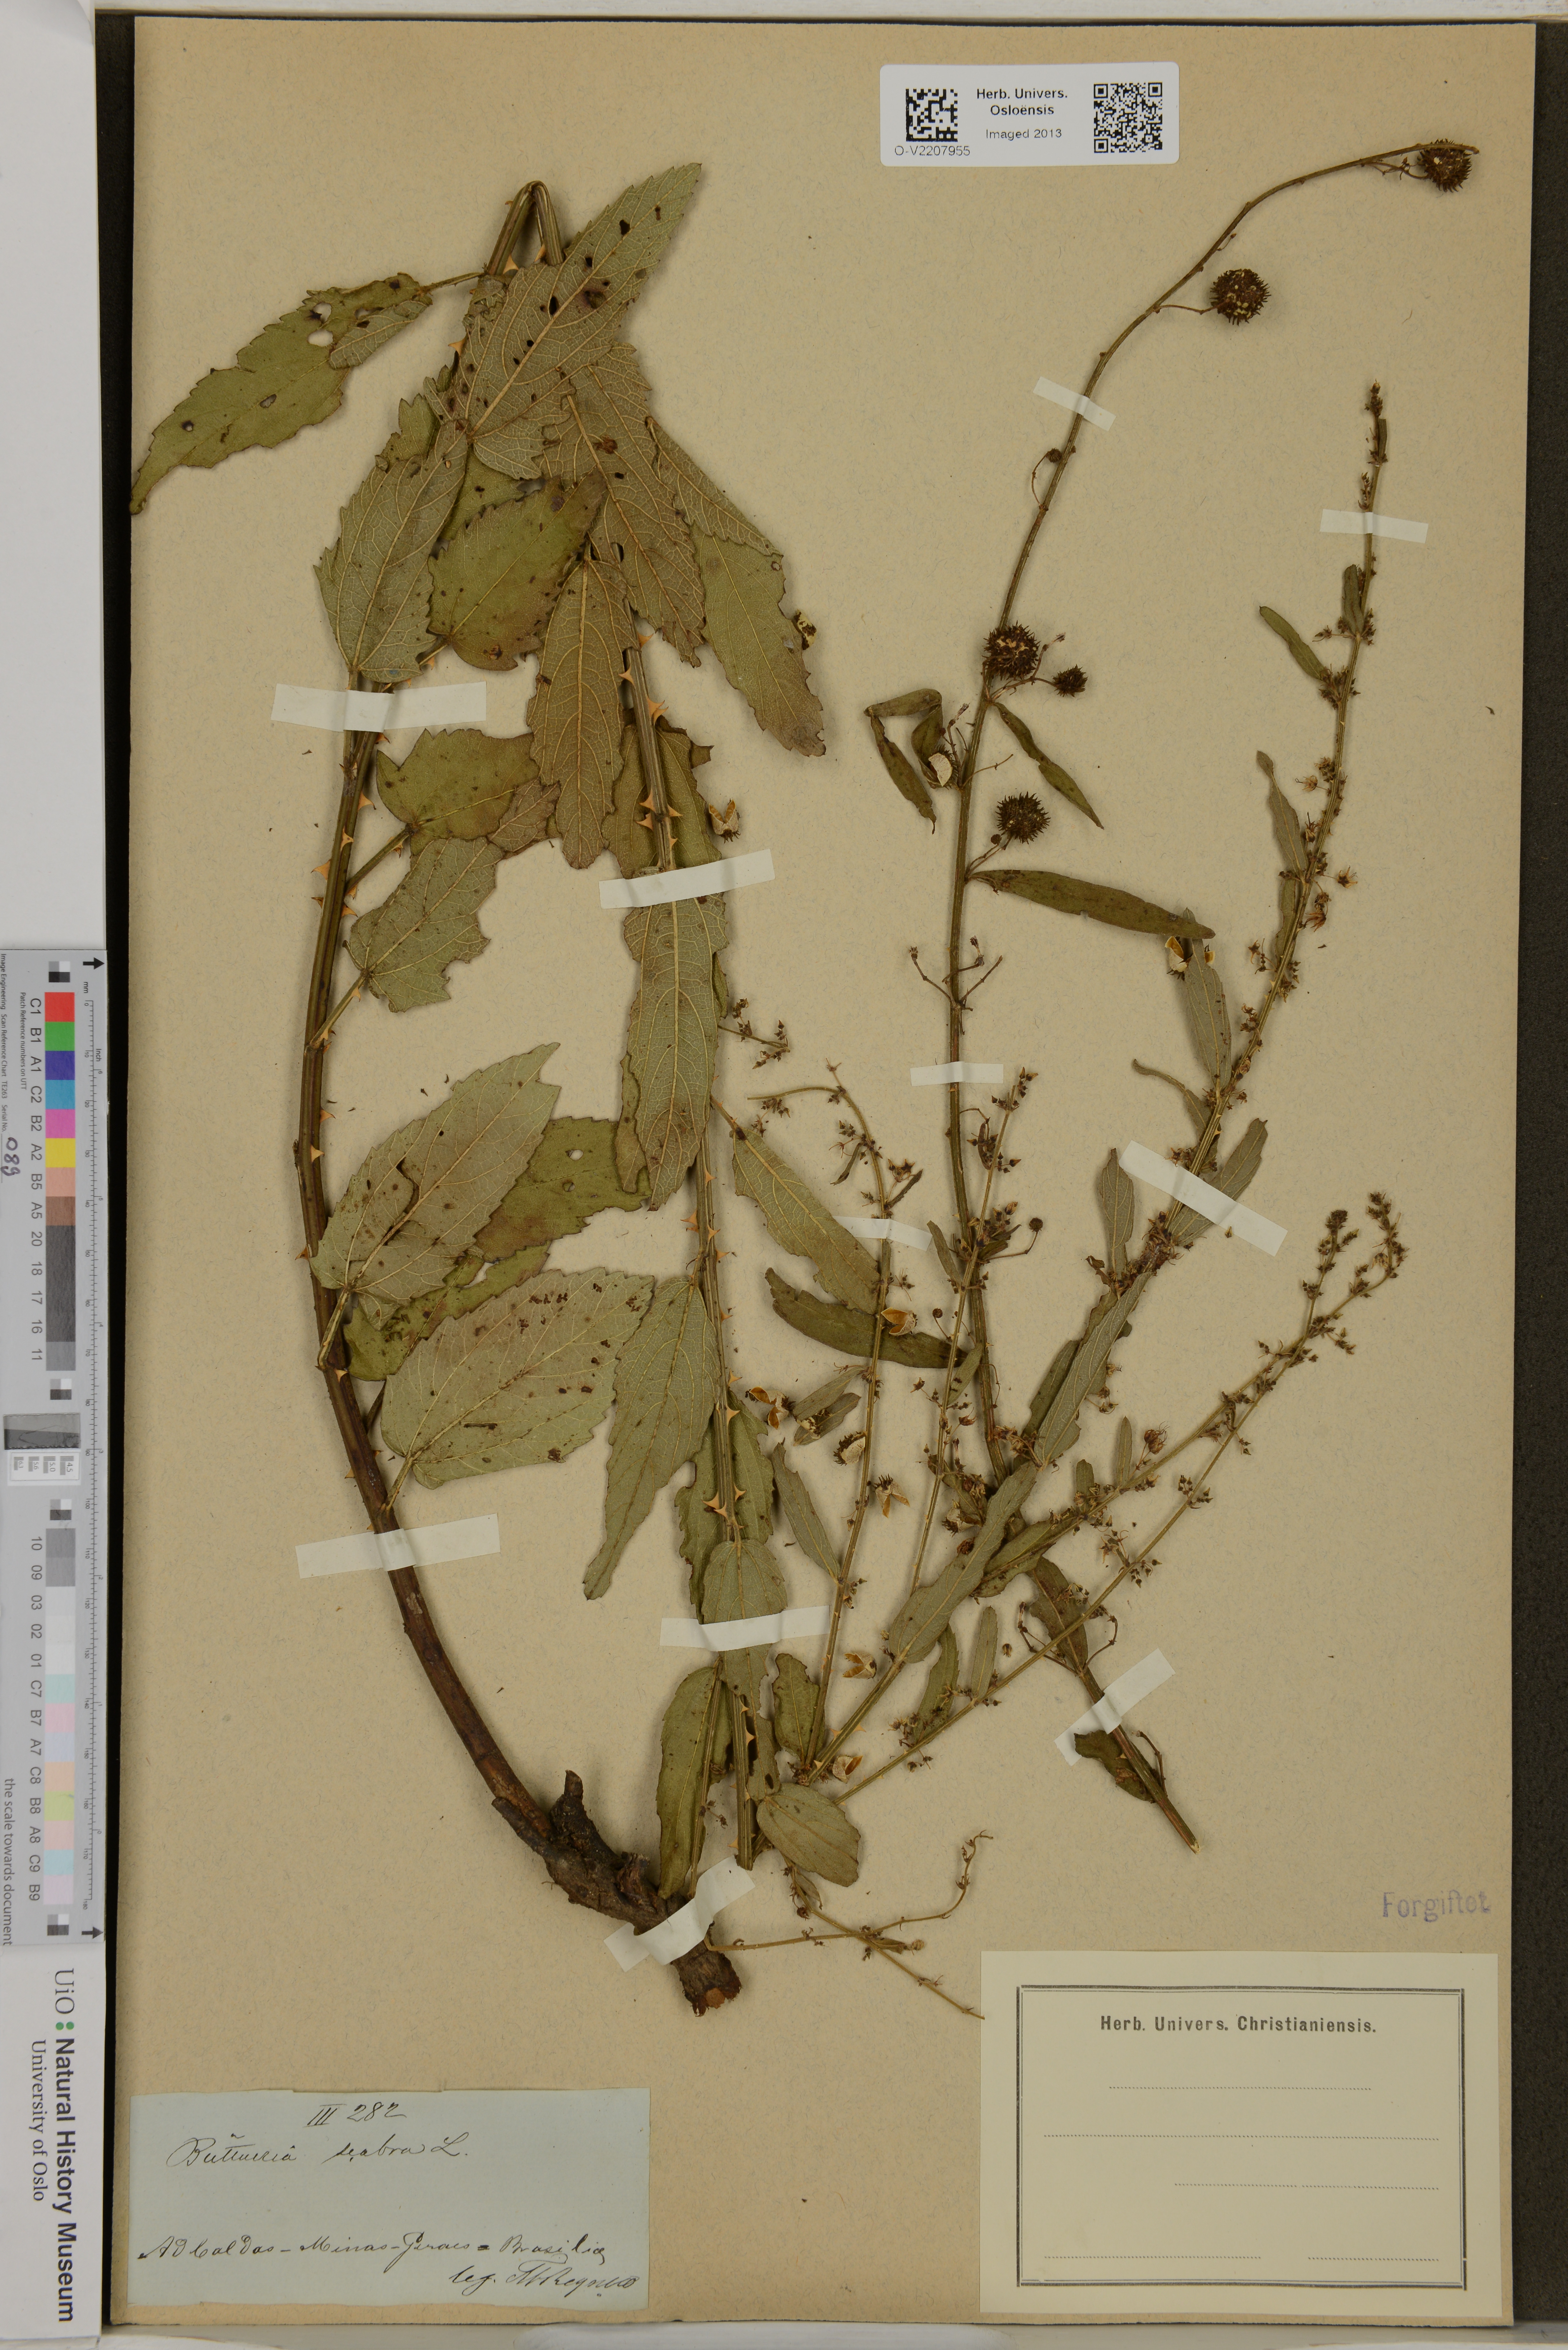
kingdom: Plantae
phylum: Tracheophyta
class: Magnoliopsida
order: Malvales
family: Malvaceae
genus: Byttneria
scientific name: Byttneria scabra
